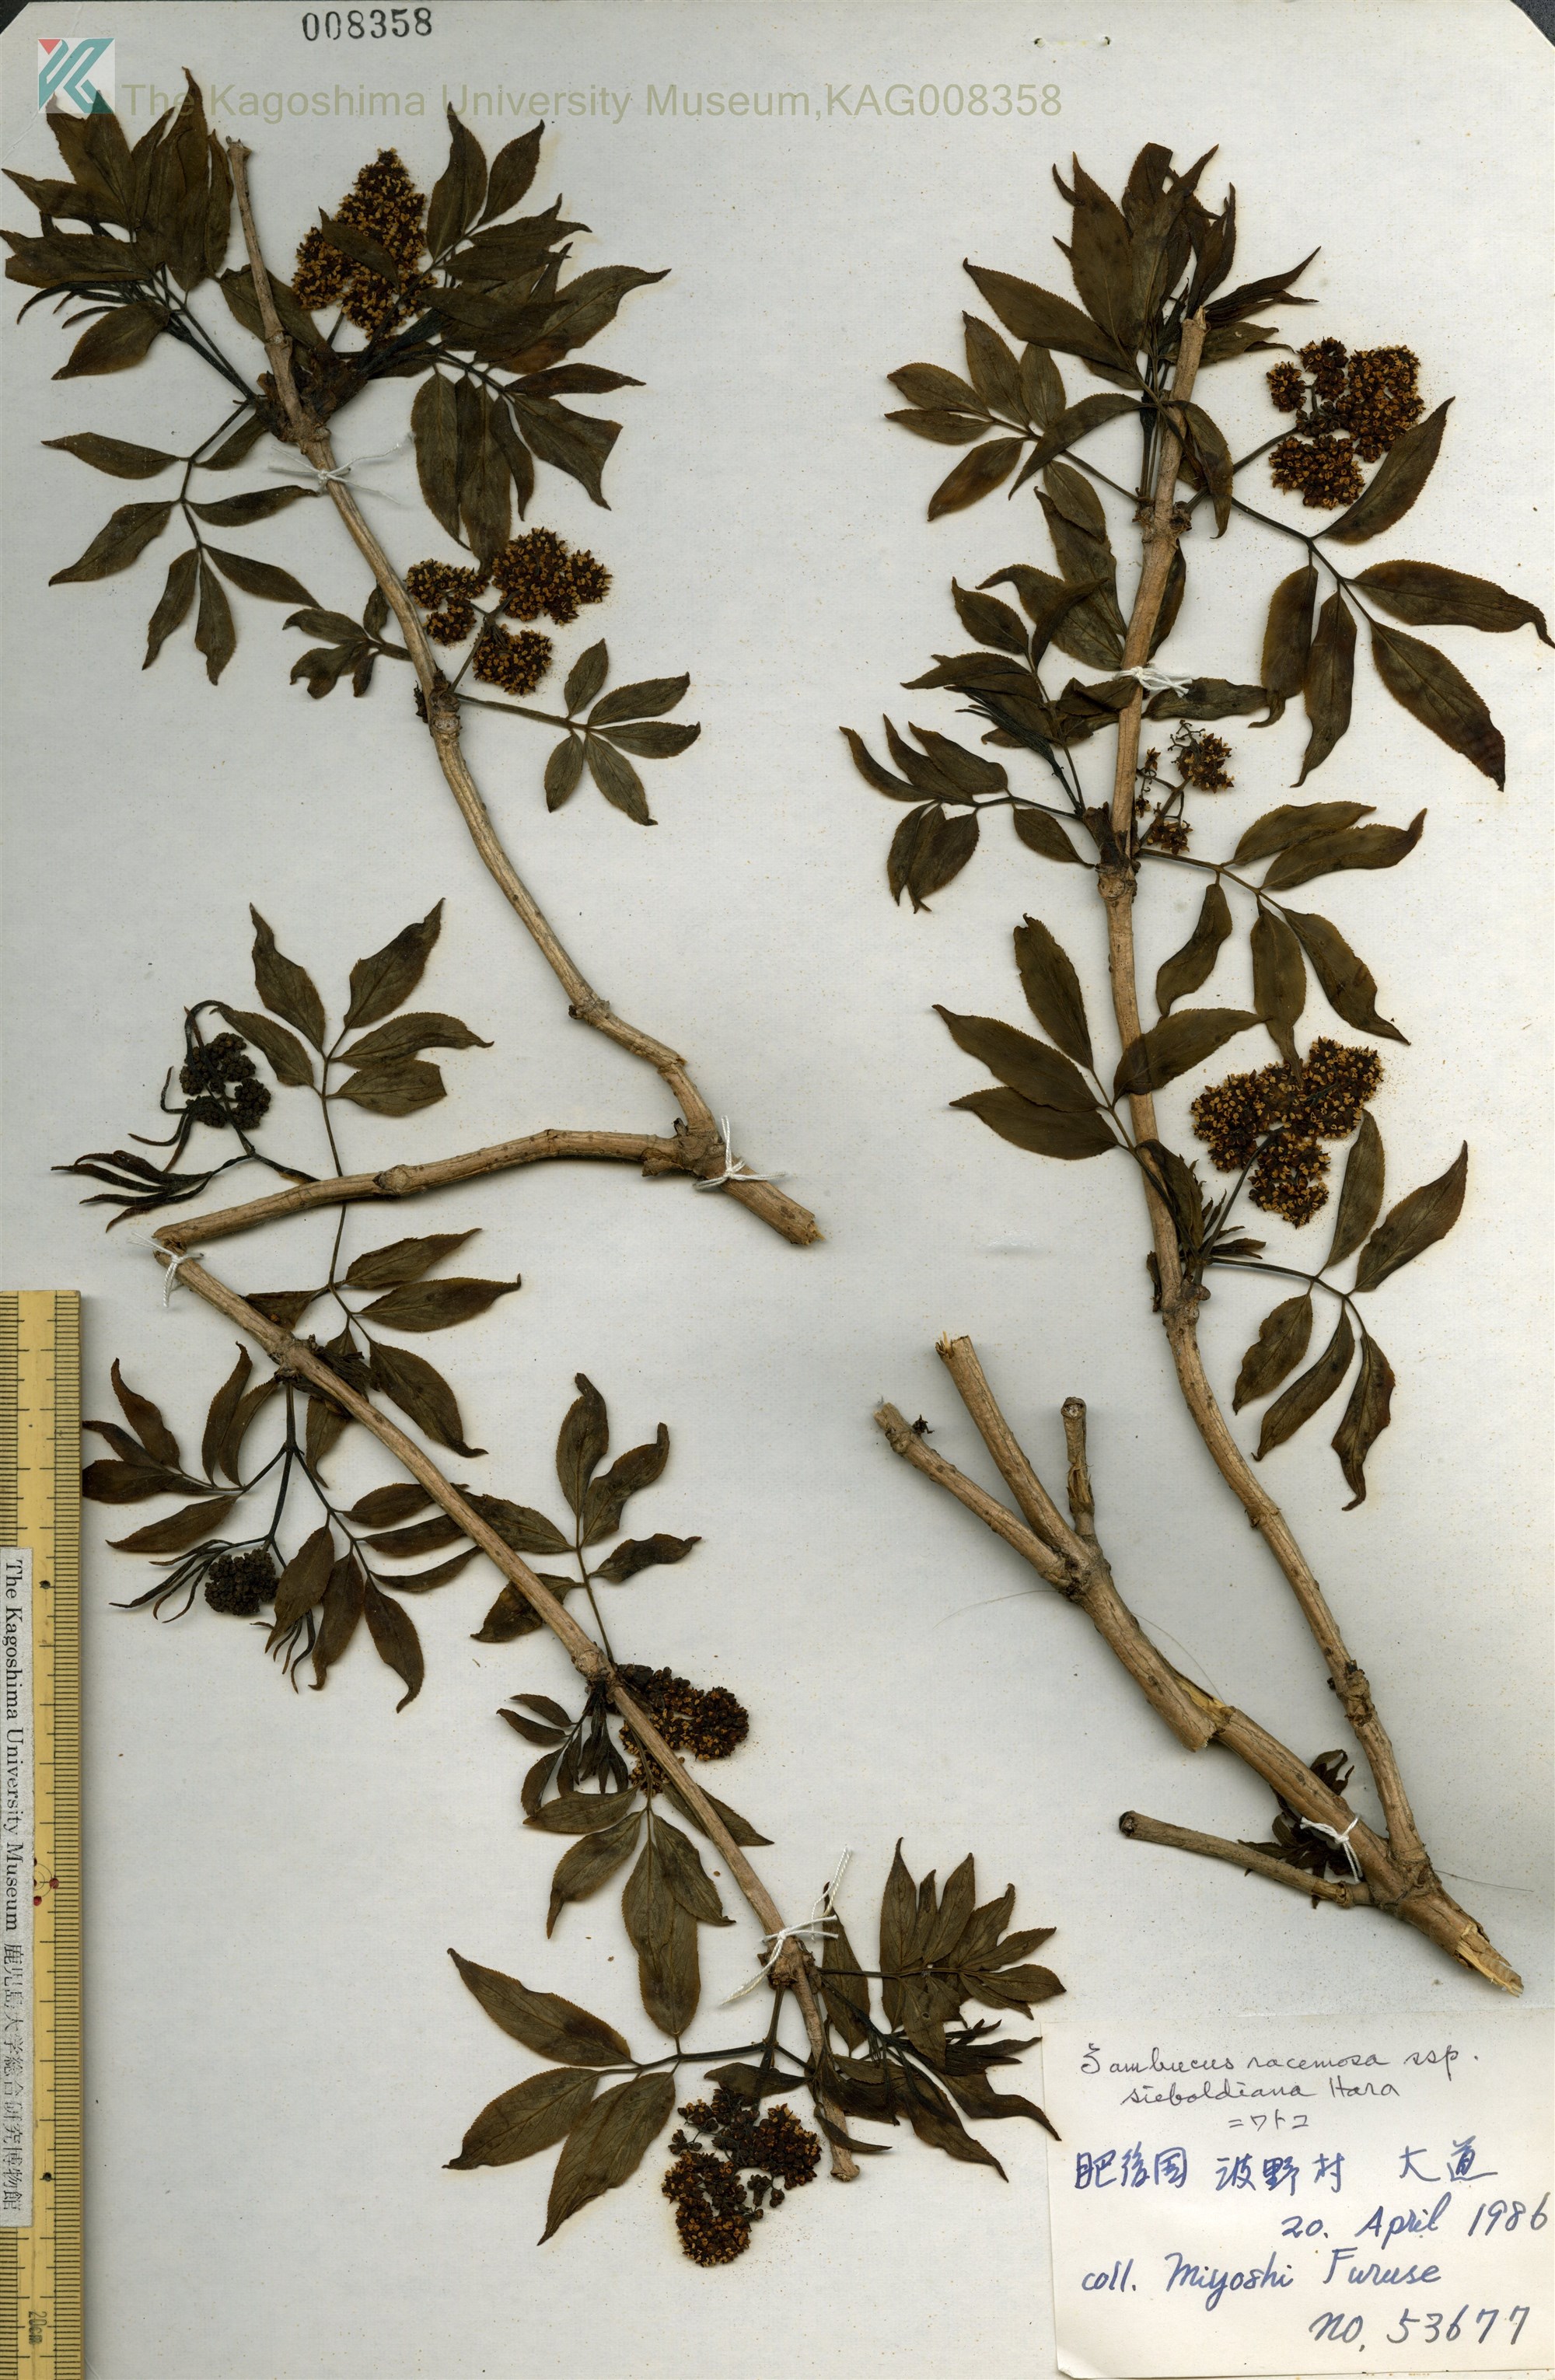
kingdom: Plantae
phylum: Tracheophyta
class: Magnoliopsida
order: Dipsacales
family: Viburnaceae
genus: Sambucus
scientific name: Sambucus sieboldiana
